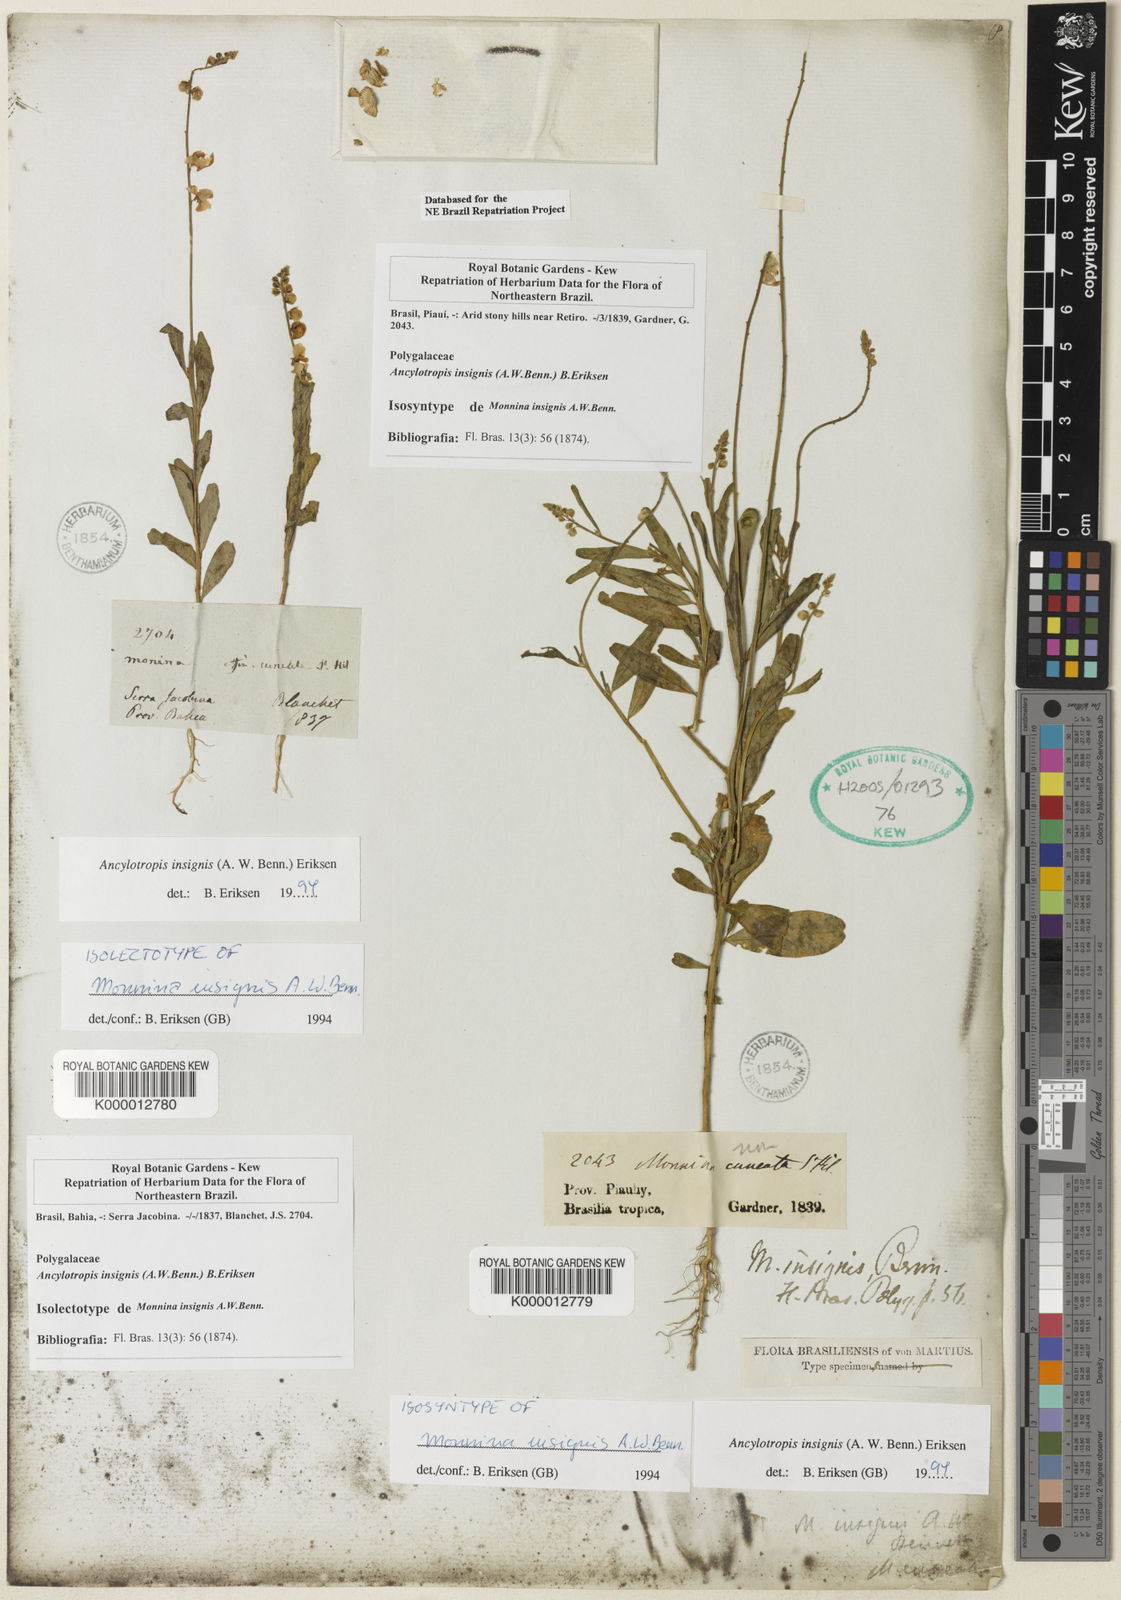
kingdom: Plantae
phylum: Tracheophyta
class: Magnoliopsida
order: Fabales
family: Polygalaceae
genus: Ancylotropis
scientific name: Ancylotropis insignis
